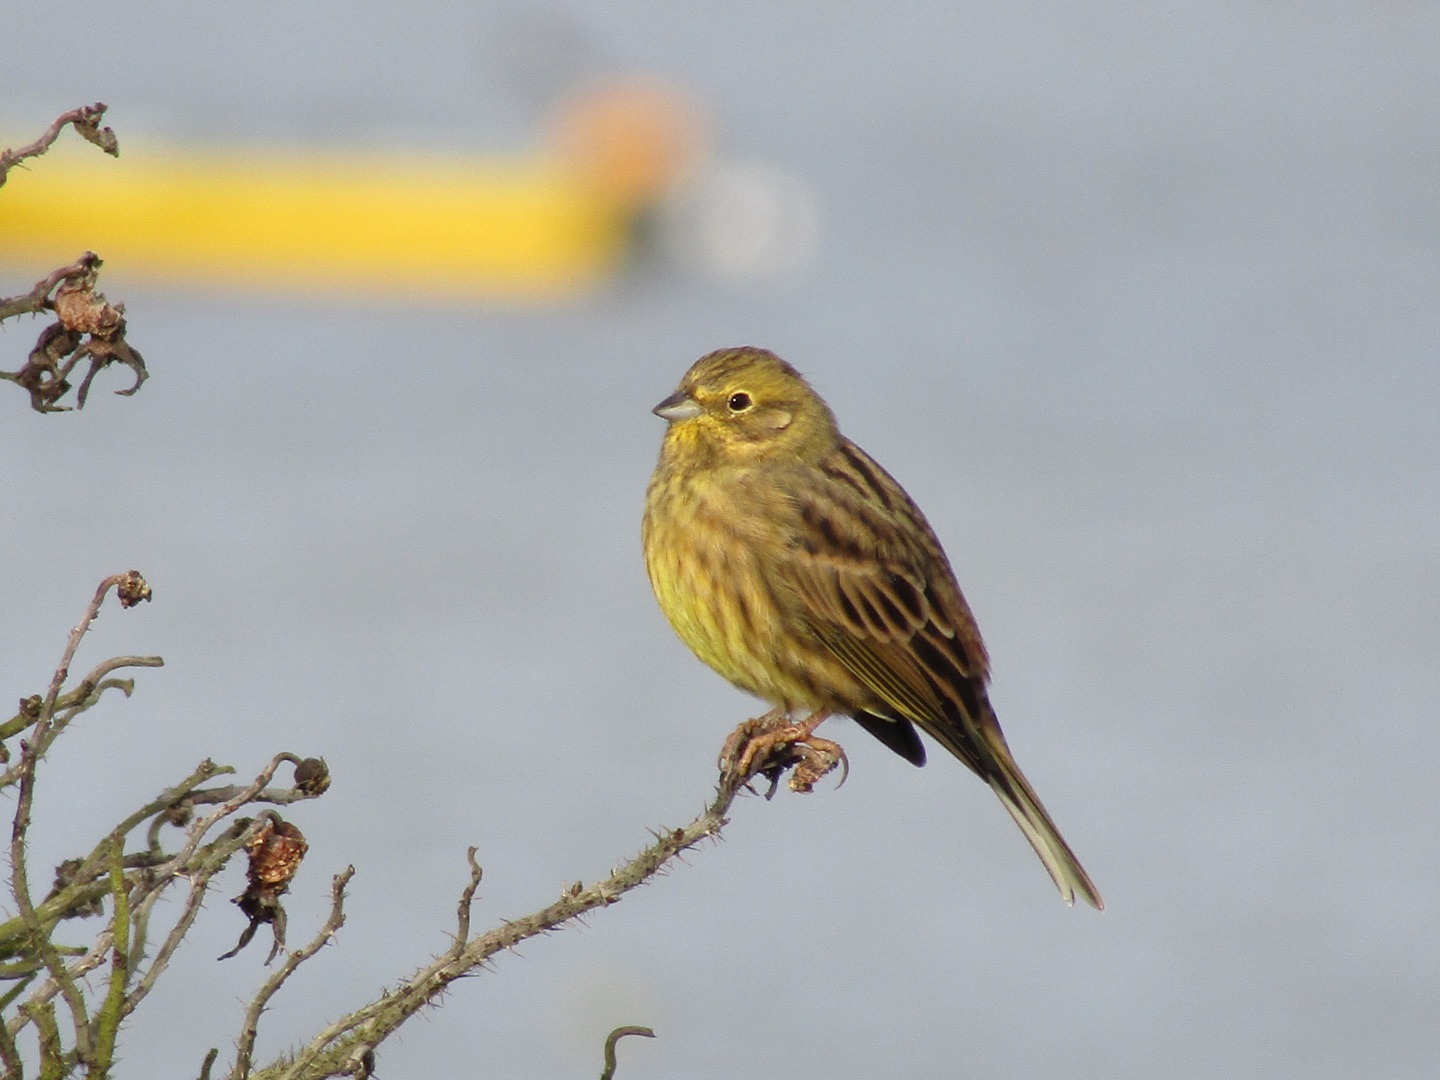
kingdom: Animalia
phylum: Chordata
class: Aves
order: Passeriformes
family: Emberizidae
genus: Emberiza
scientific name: Emberiza citrinella
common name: Gulspurv
